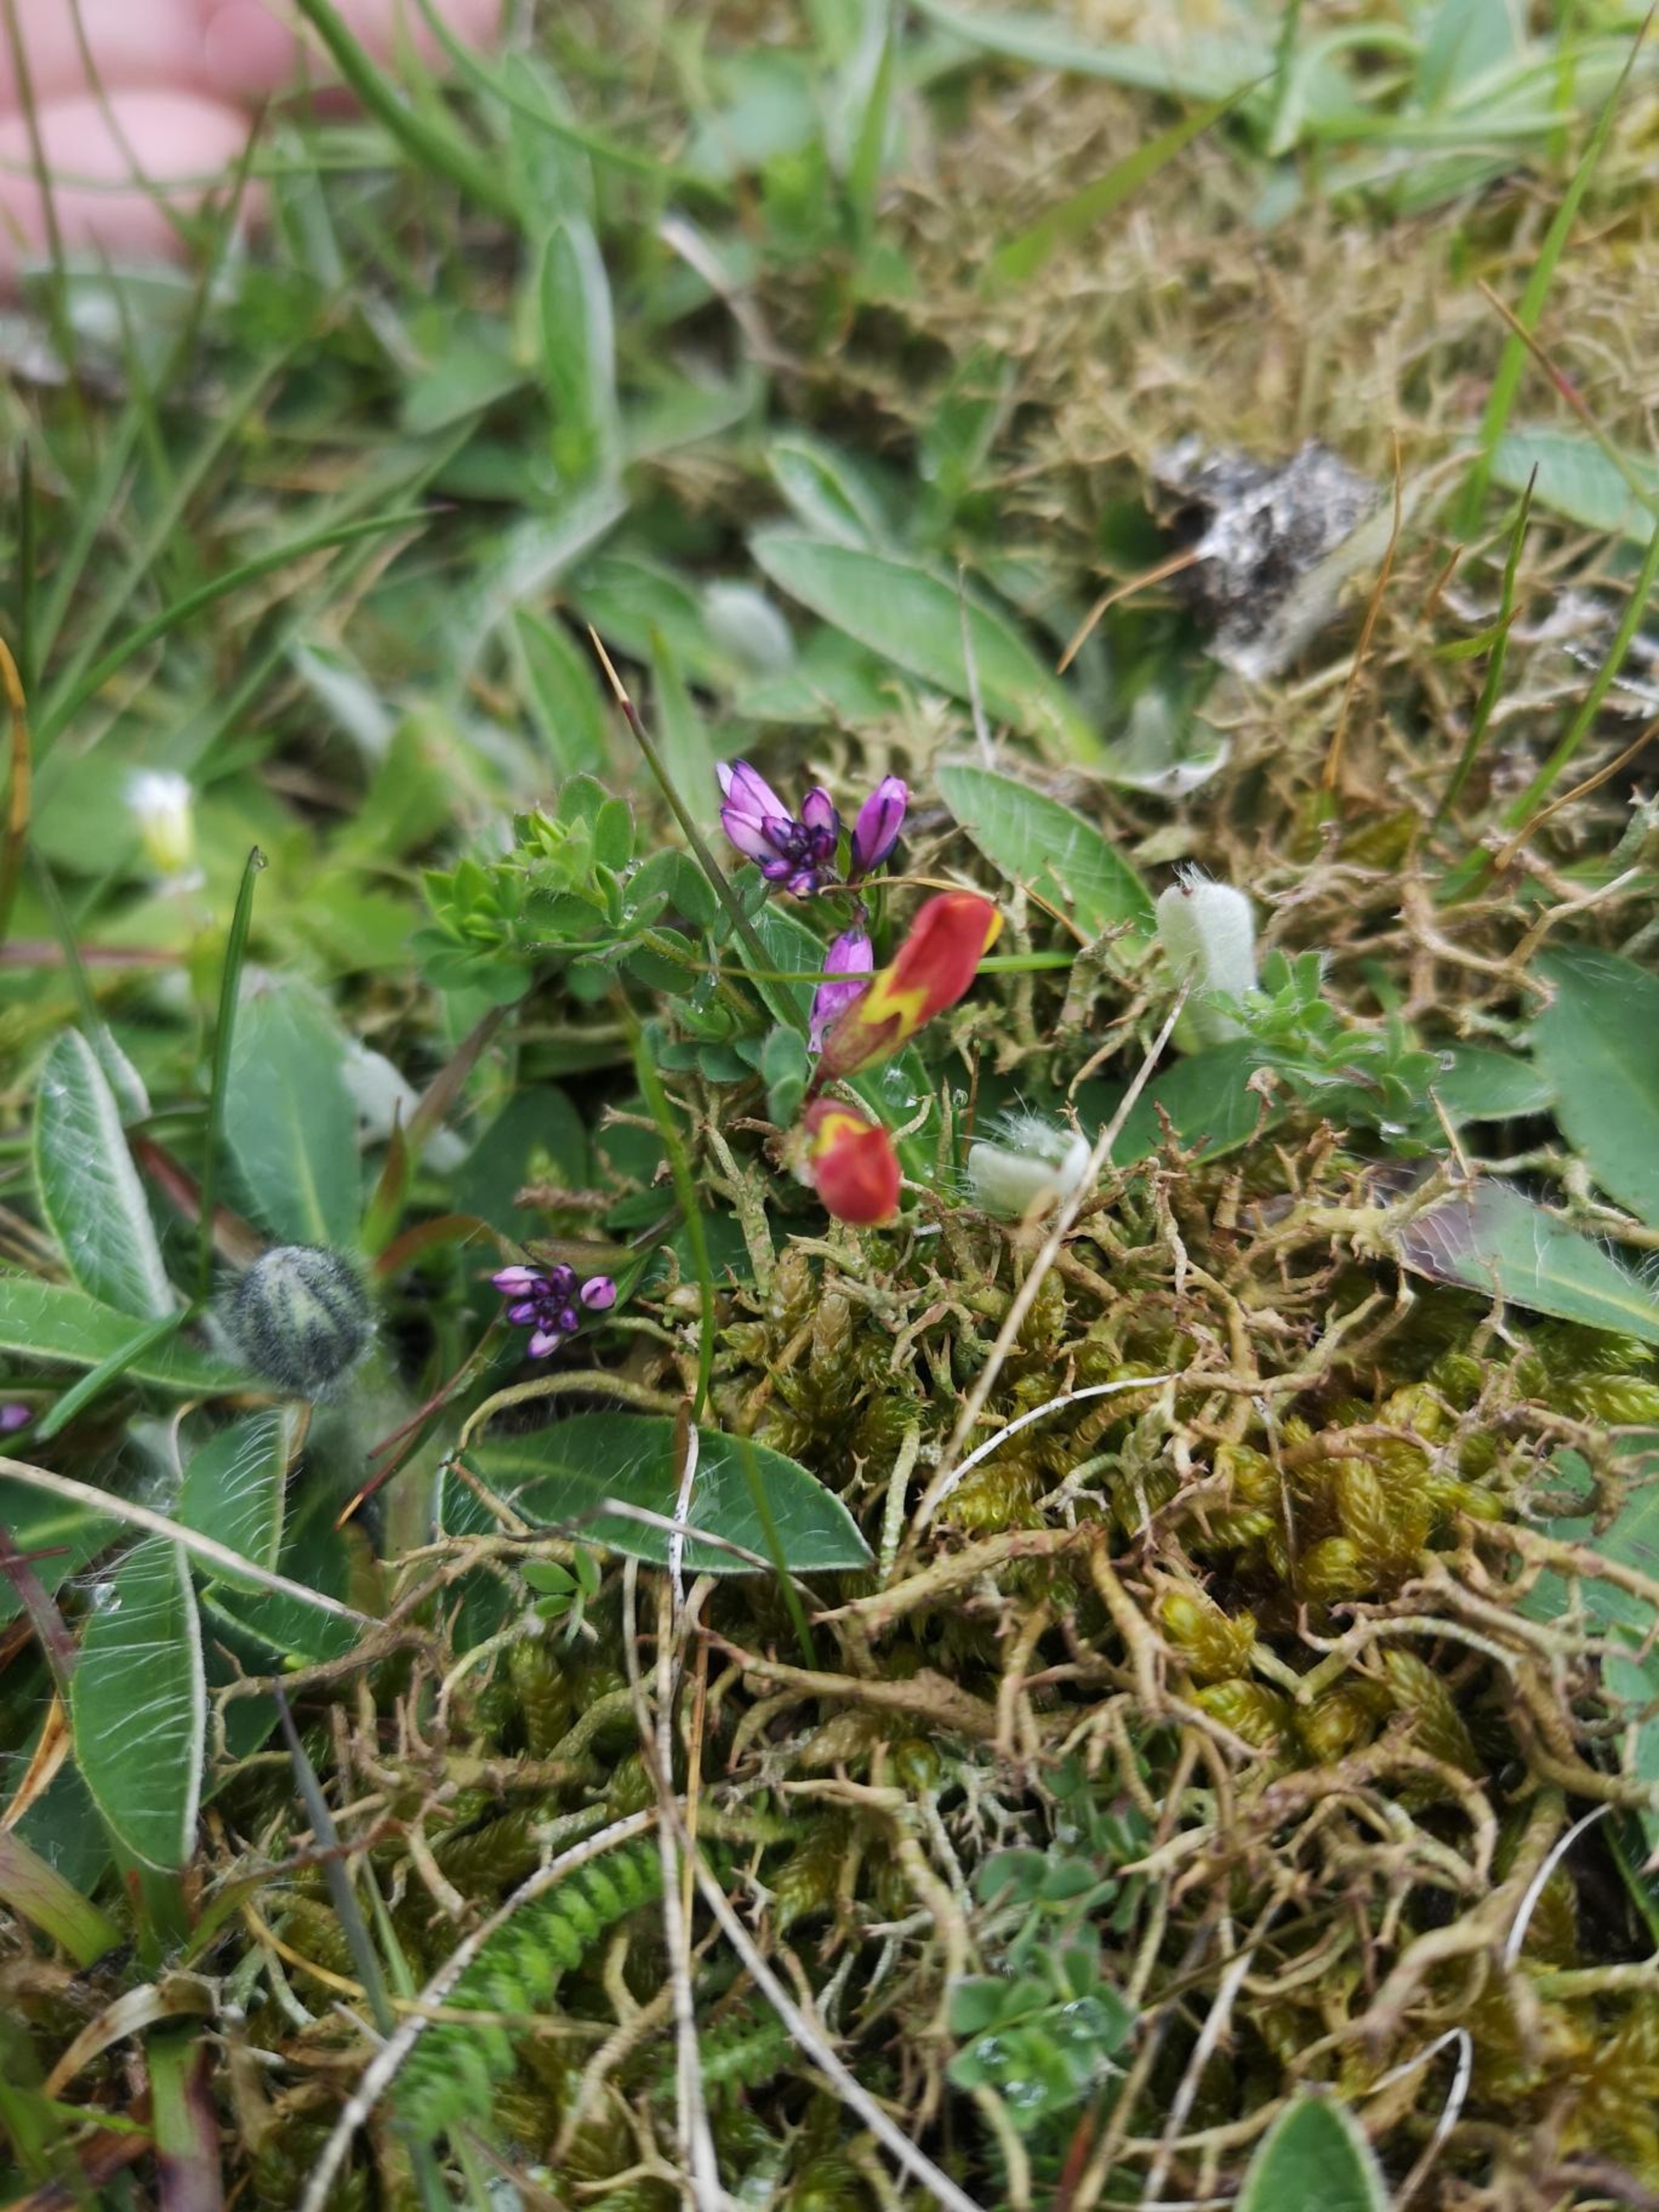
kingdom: Plantae
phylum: Tracheophyta
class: Magnoliopsida
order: Fabales
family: Polygalaceae
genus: Polygala
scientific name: Polygala vulgaris
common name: Almindelig mælkeurt
